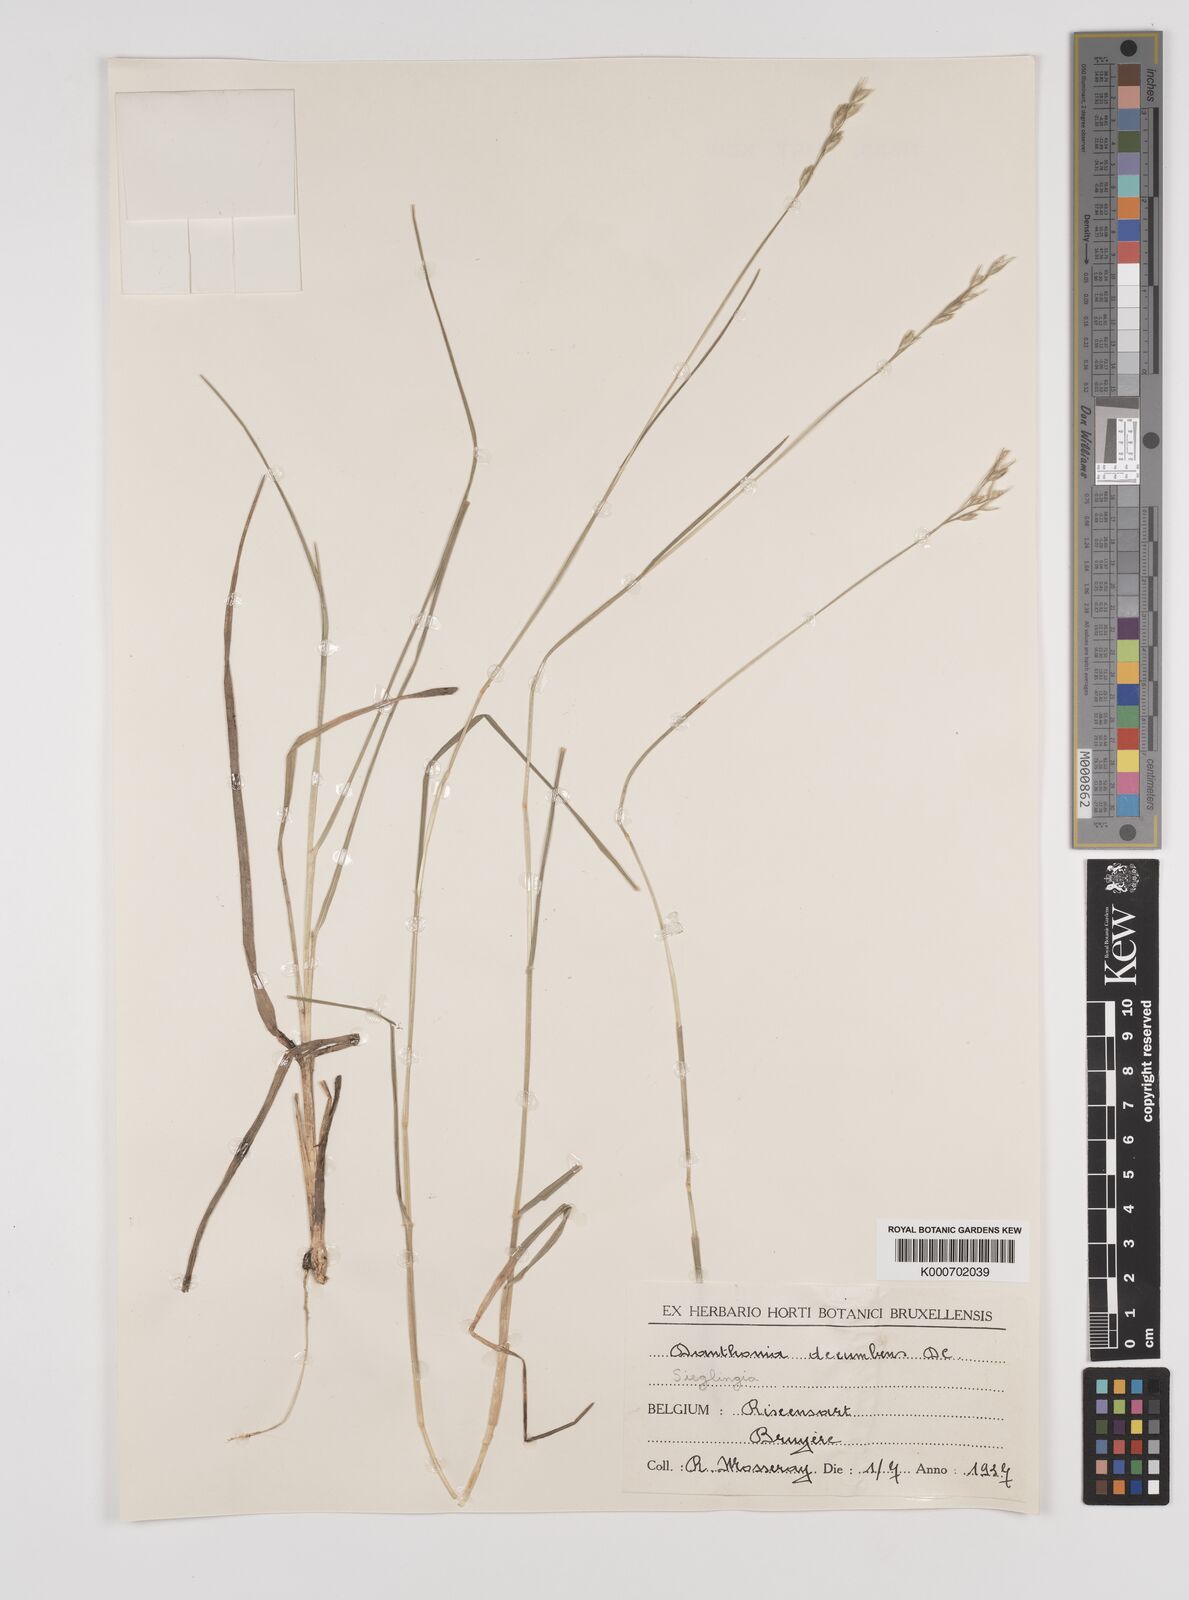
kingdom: Plantae
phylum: Tracheophyta
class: Liliopsida
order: Poales
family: Poaceae
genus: Danthonia
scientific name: Danthonia decumbens
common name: Common heathgrass
